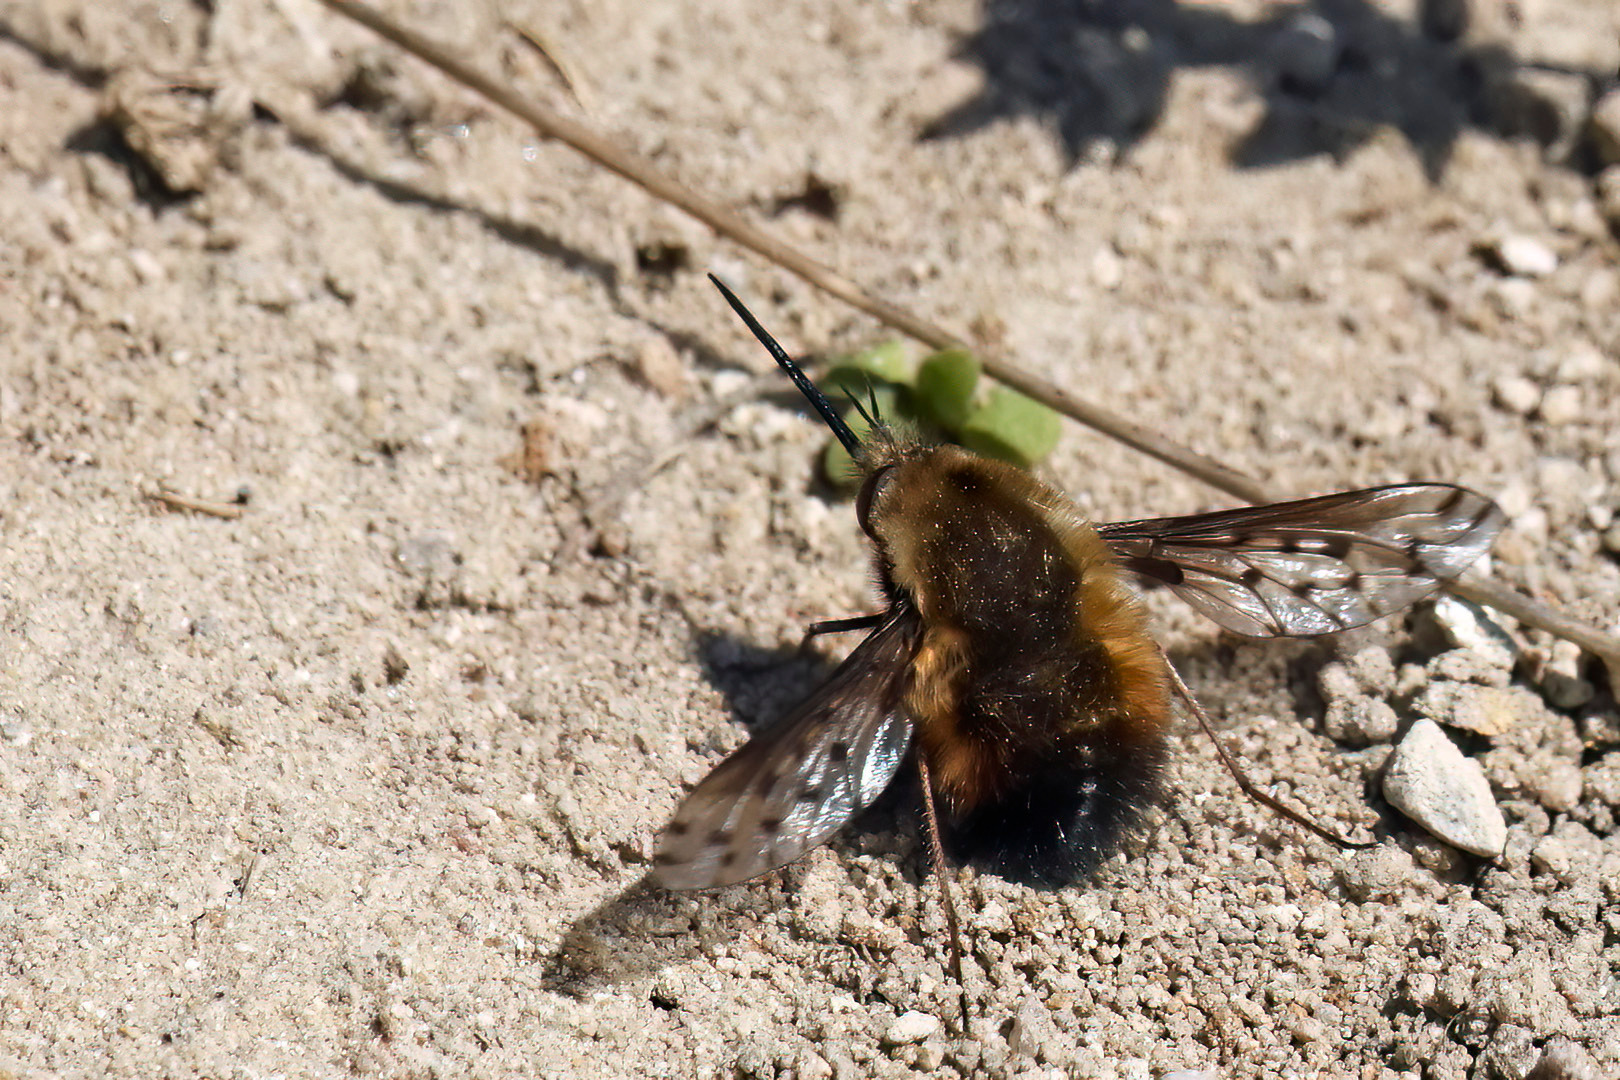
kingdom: Animalia
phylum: Arthropoda
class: Insecta
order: Diptera
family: Bombyliidae
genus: Bombylius
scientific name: Bombylius discolor
